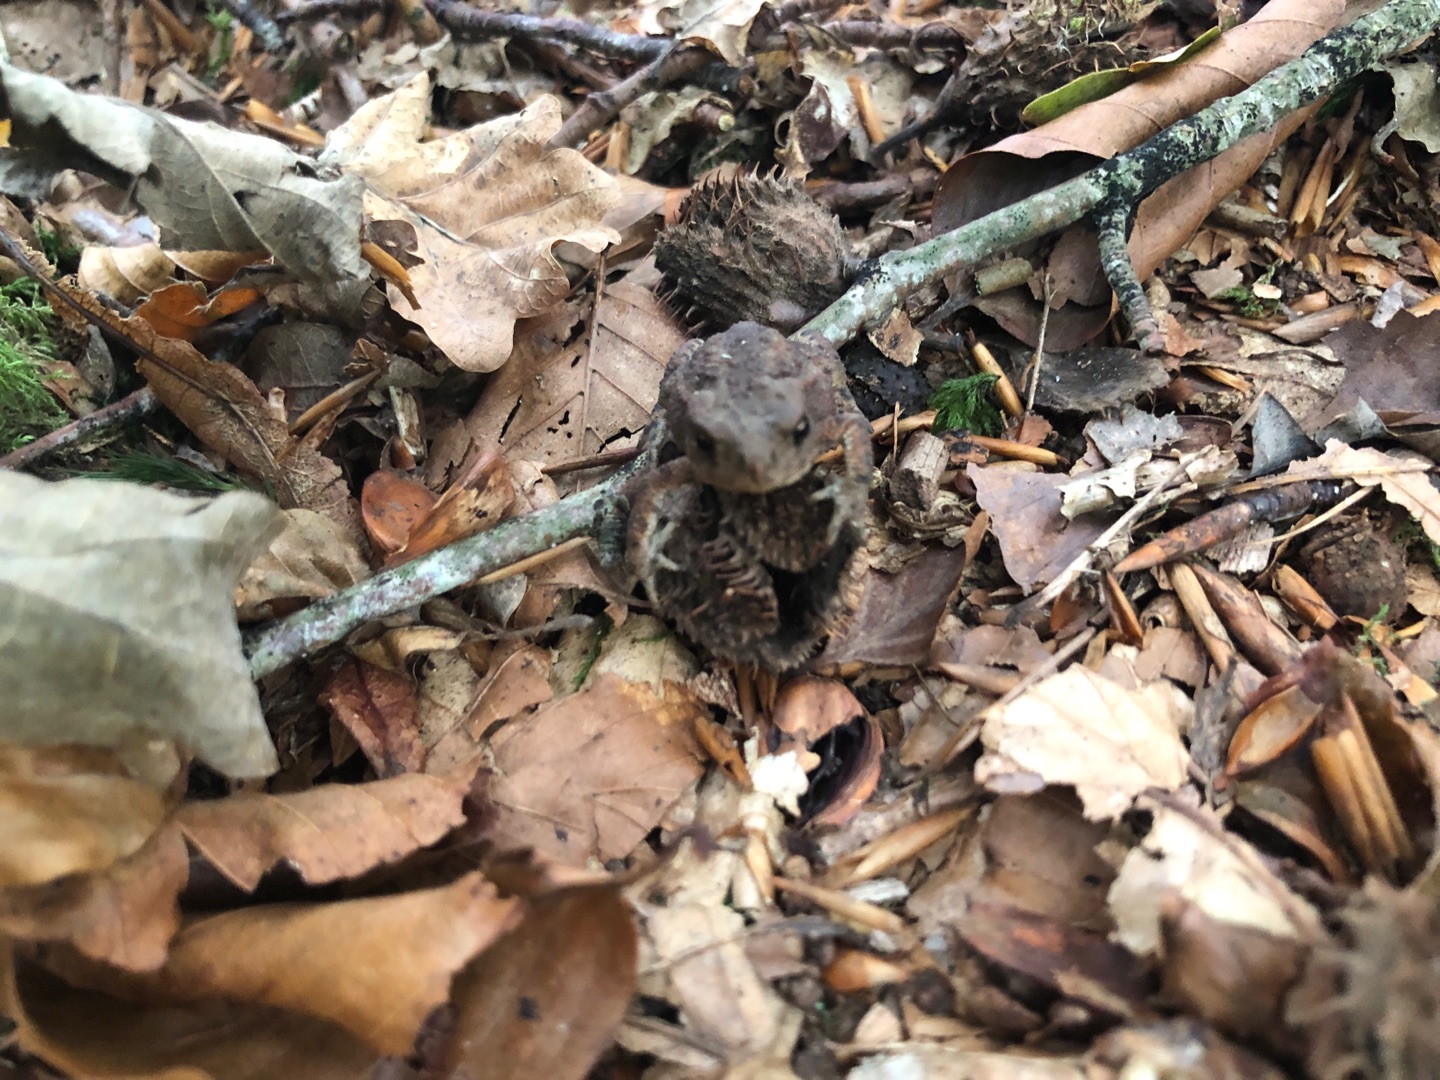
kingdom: Animalia
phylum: Chordata
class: Amphibia
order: Anura
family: Bufonidae
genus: Bufo
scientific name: Bufo bufo
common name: Skrubtudse
